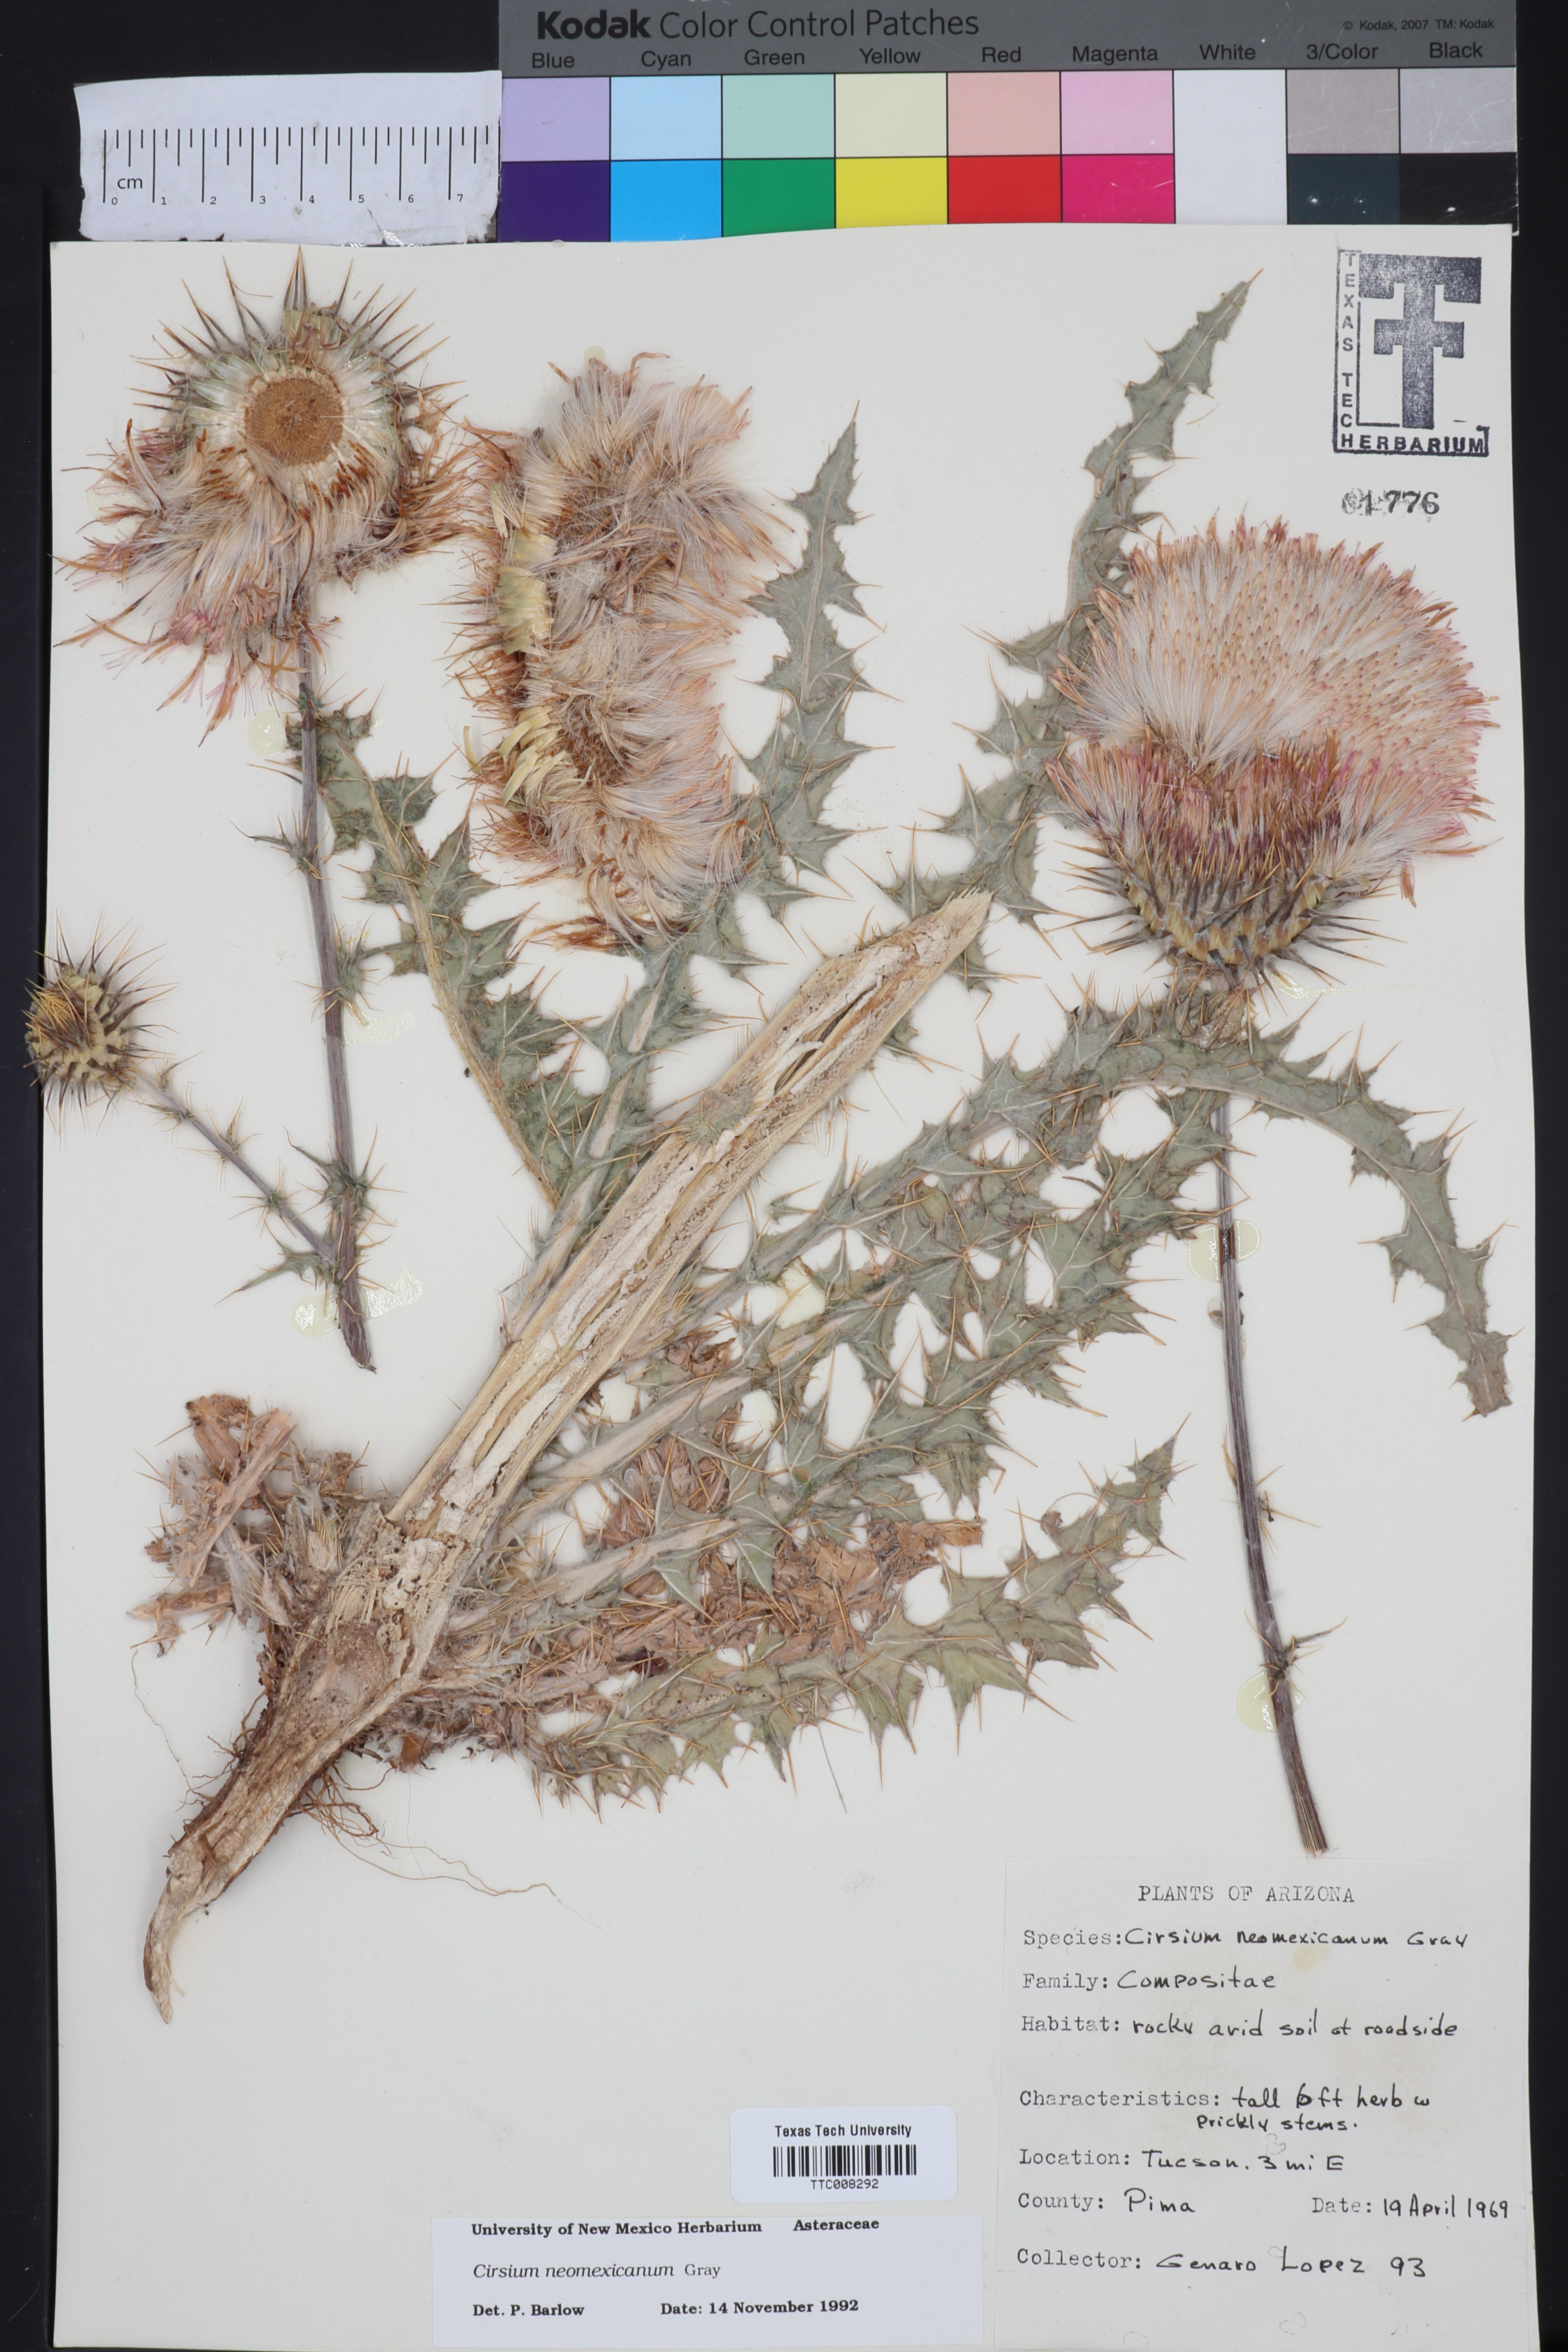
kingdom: Plantae
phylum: Tracheophyta
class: Magnoliopsida
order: Asterales
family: Asteraceae
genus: Cirsium
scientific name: Cirsium neomexicanum
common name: New mexico thistle
